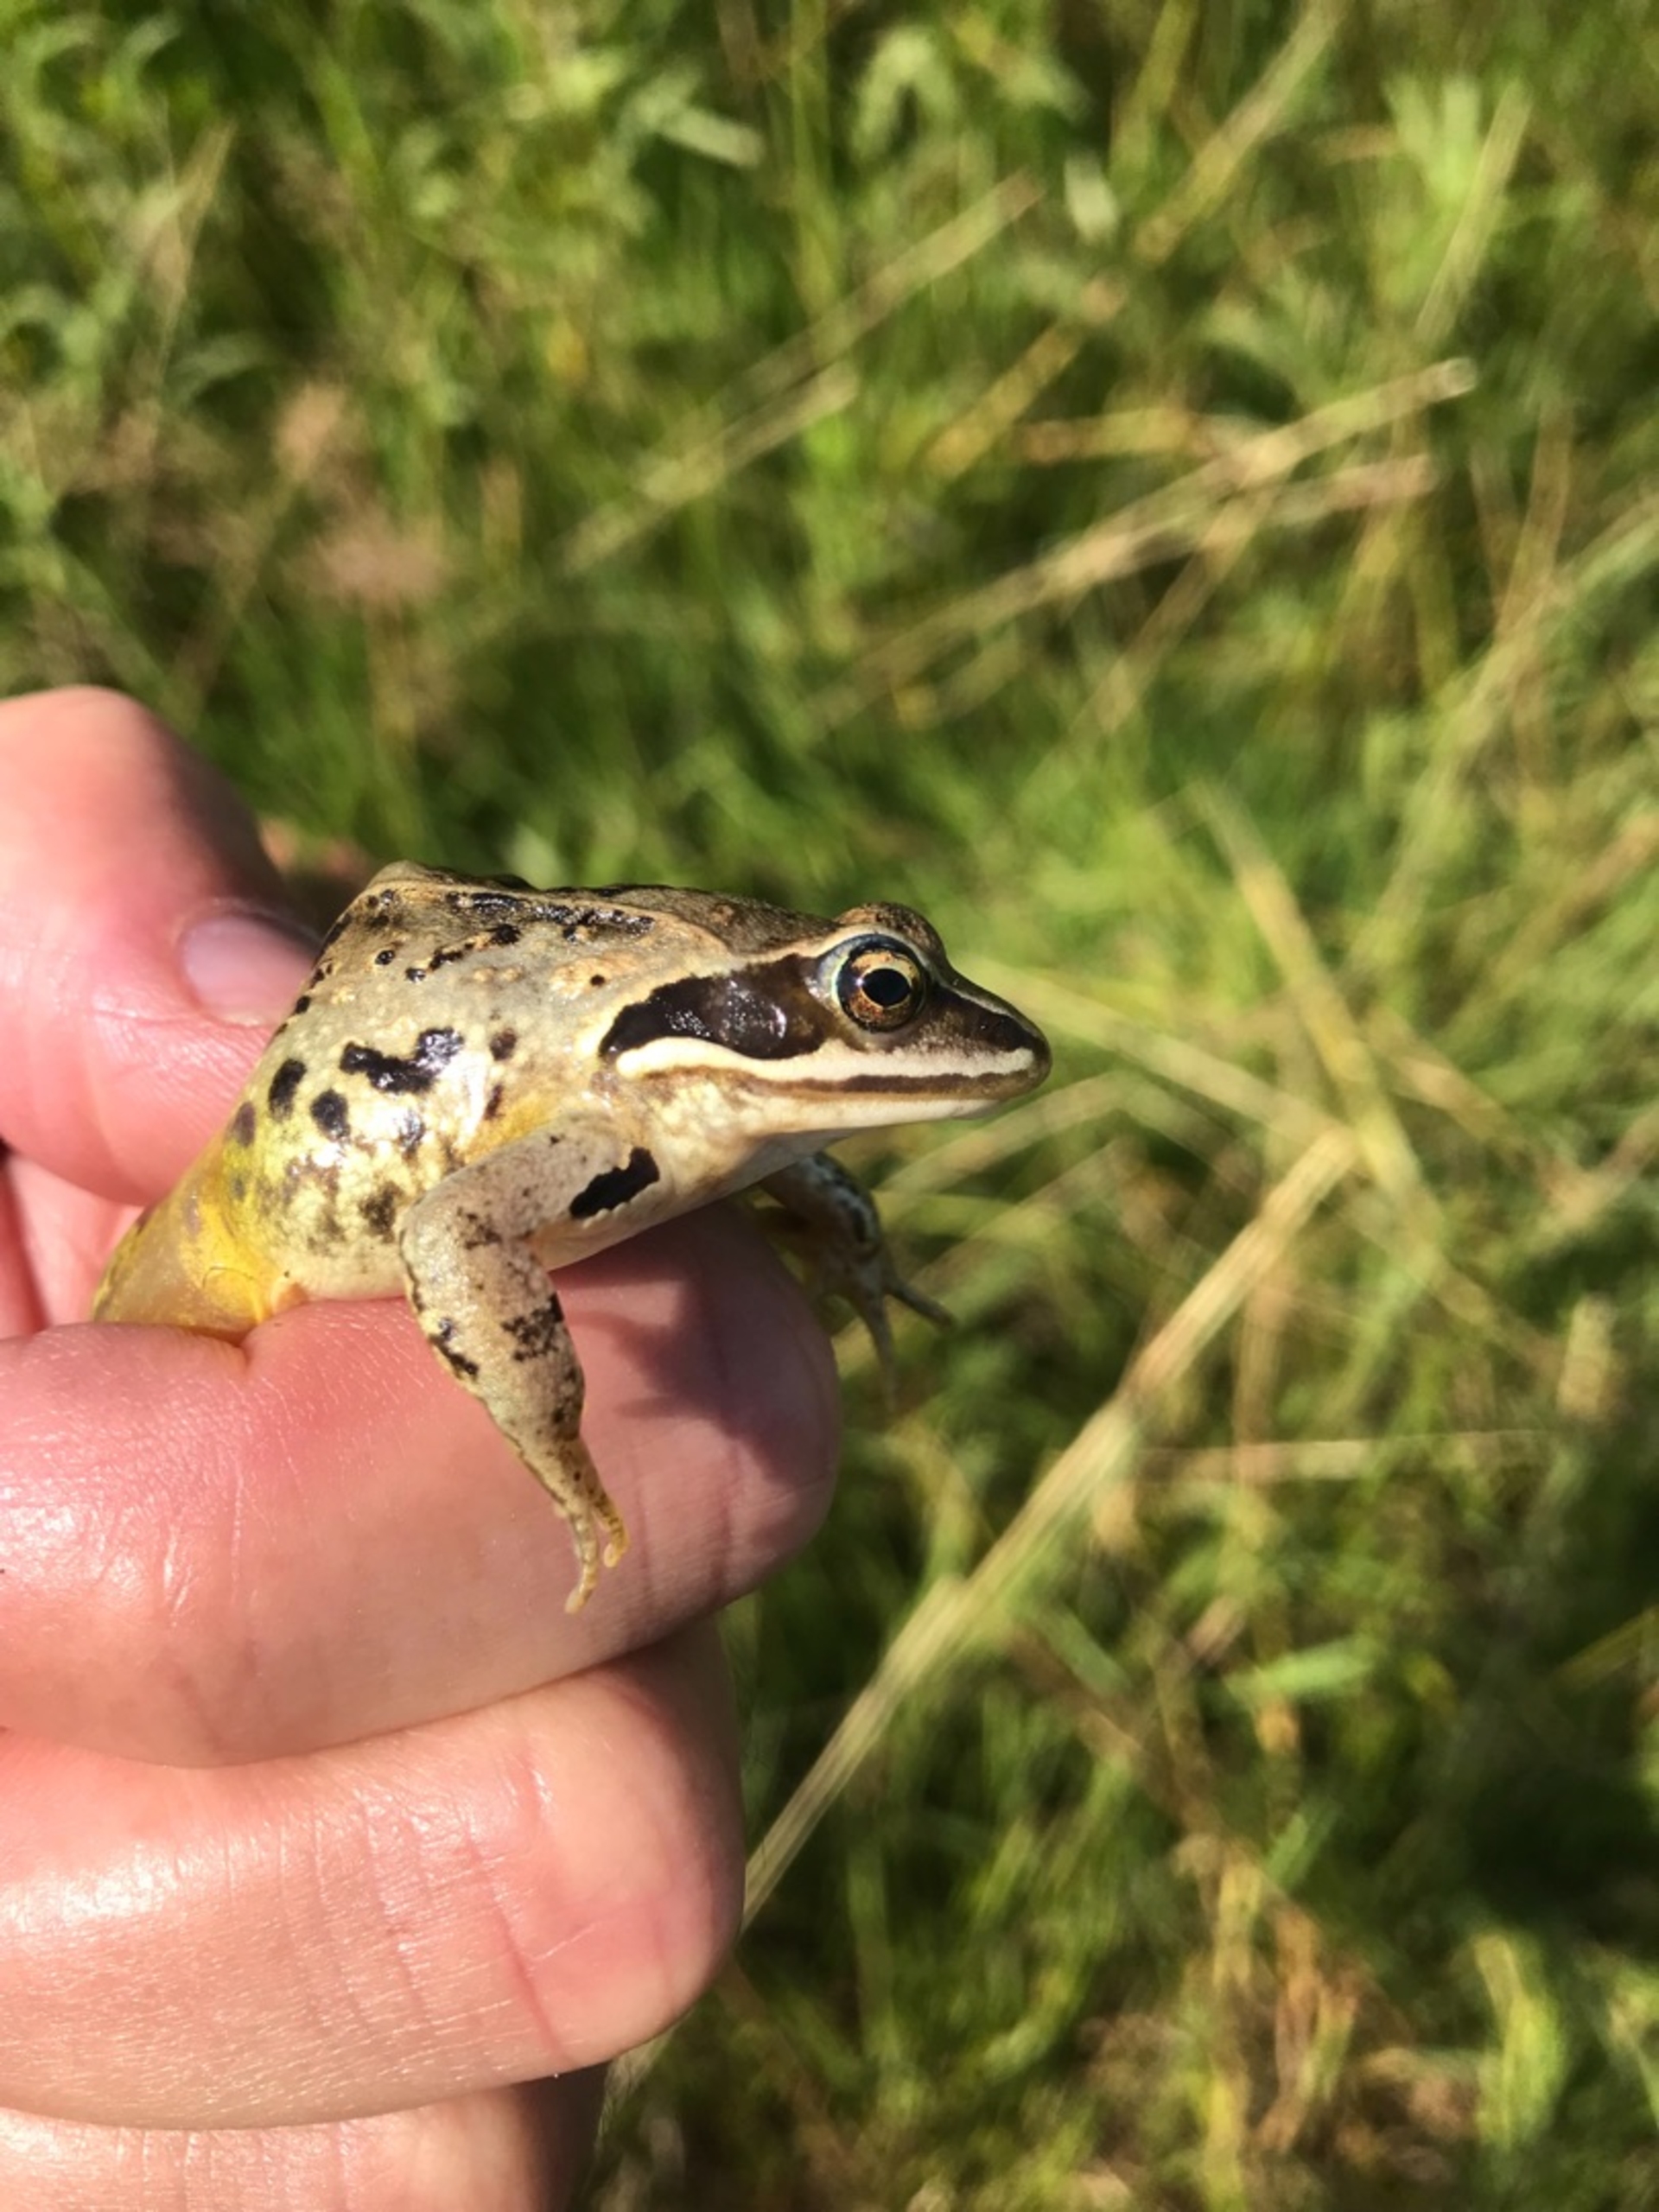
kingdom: Animalia
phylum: Chordata
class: Amphibia
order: Anura
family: Ranidae
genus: Rana
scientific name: Rana arvalis
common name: Spidssnudet frø
